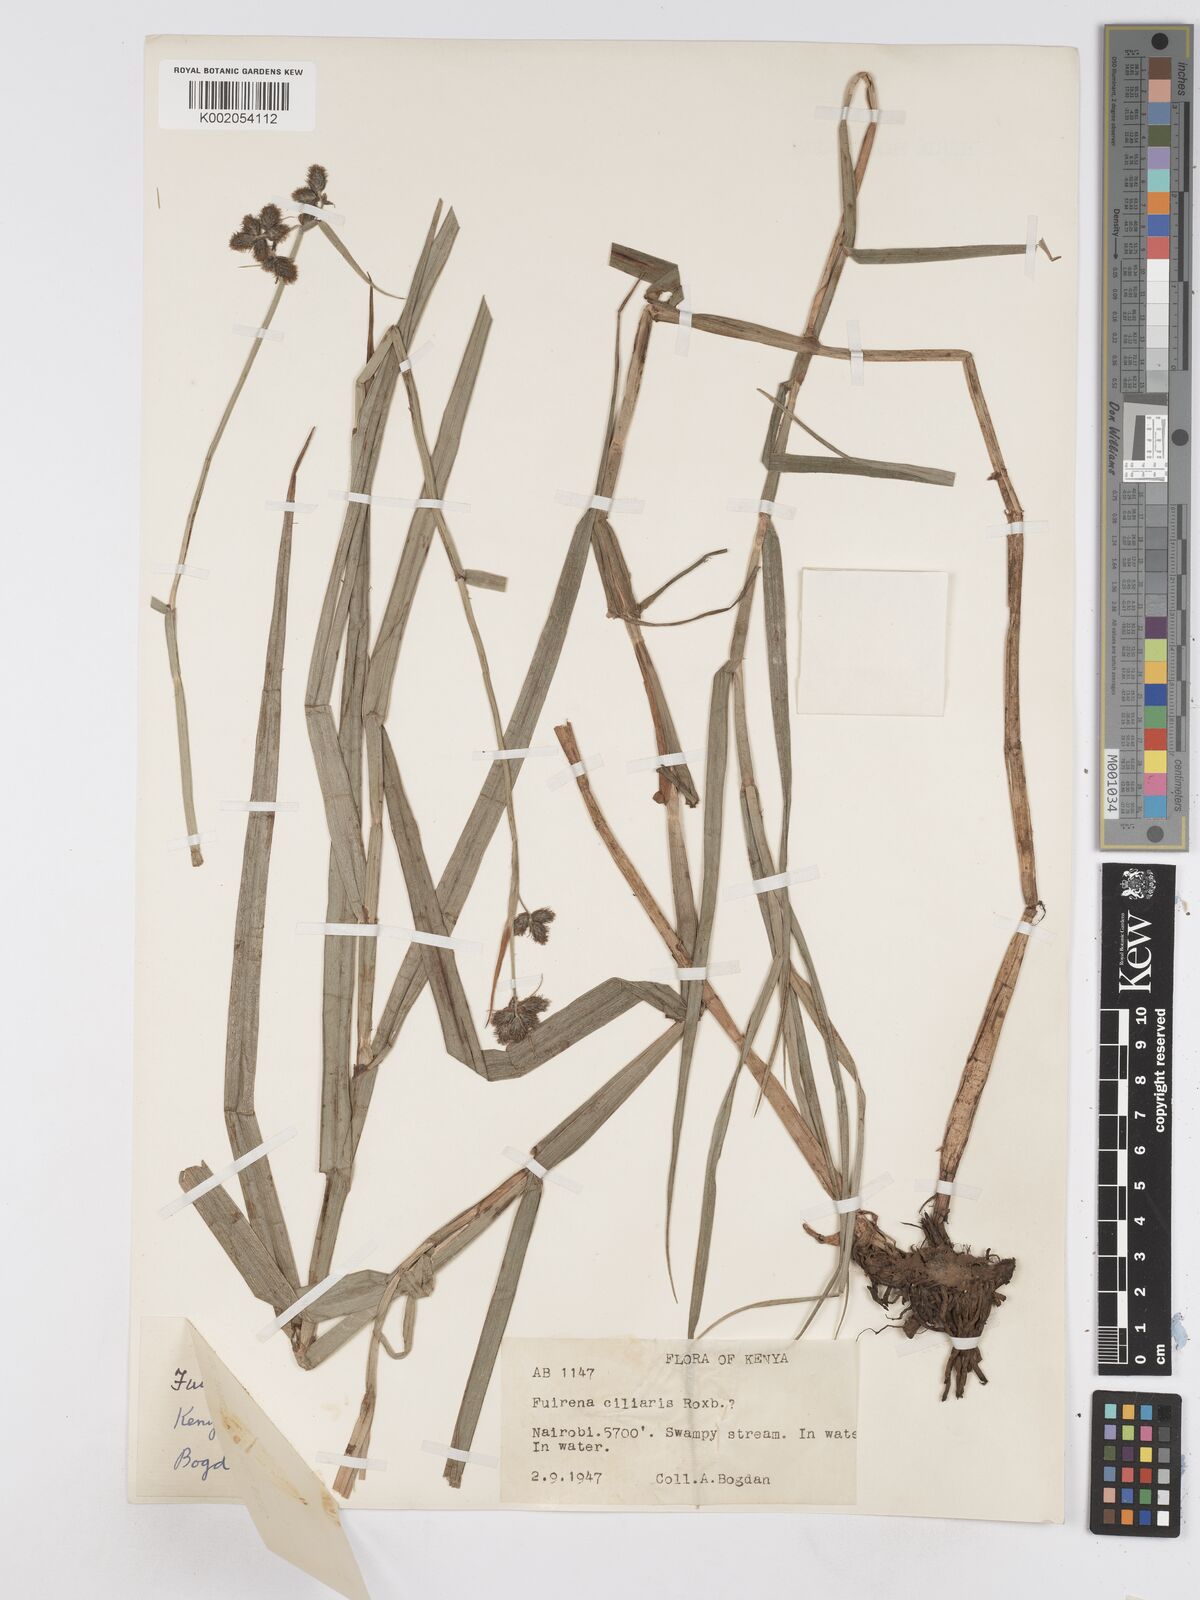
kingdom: Plantae
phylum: Tracheophyta
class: Liliopsida
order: Poales
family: Cyperaceae
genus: Fuirena
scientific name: Fuirena pubescens
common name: Hairy sedge
